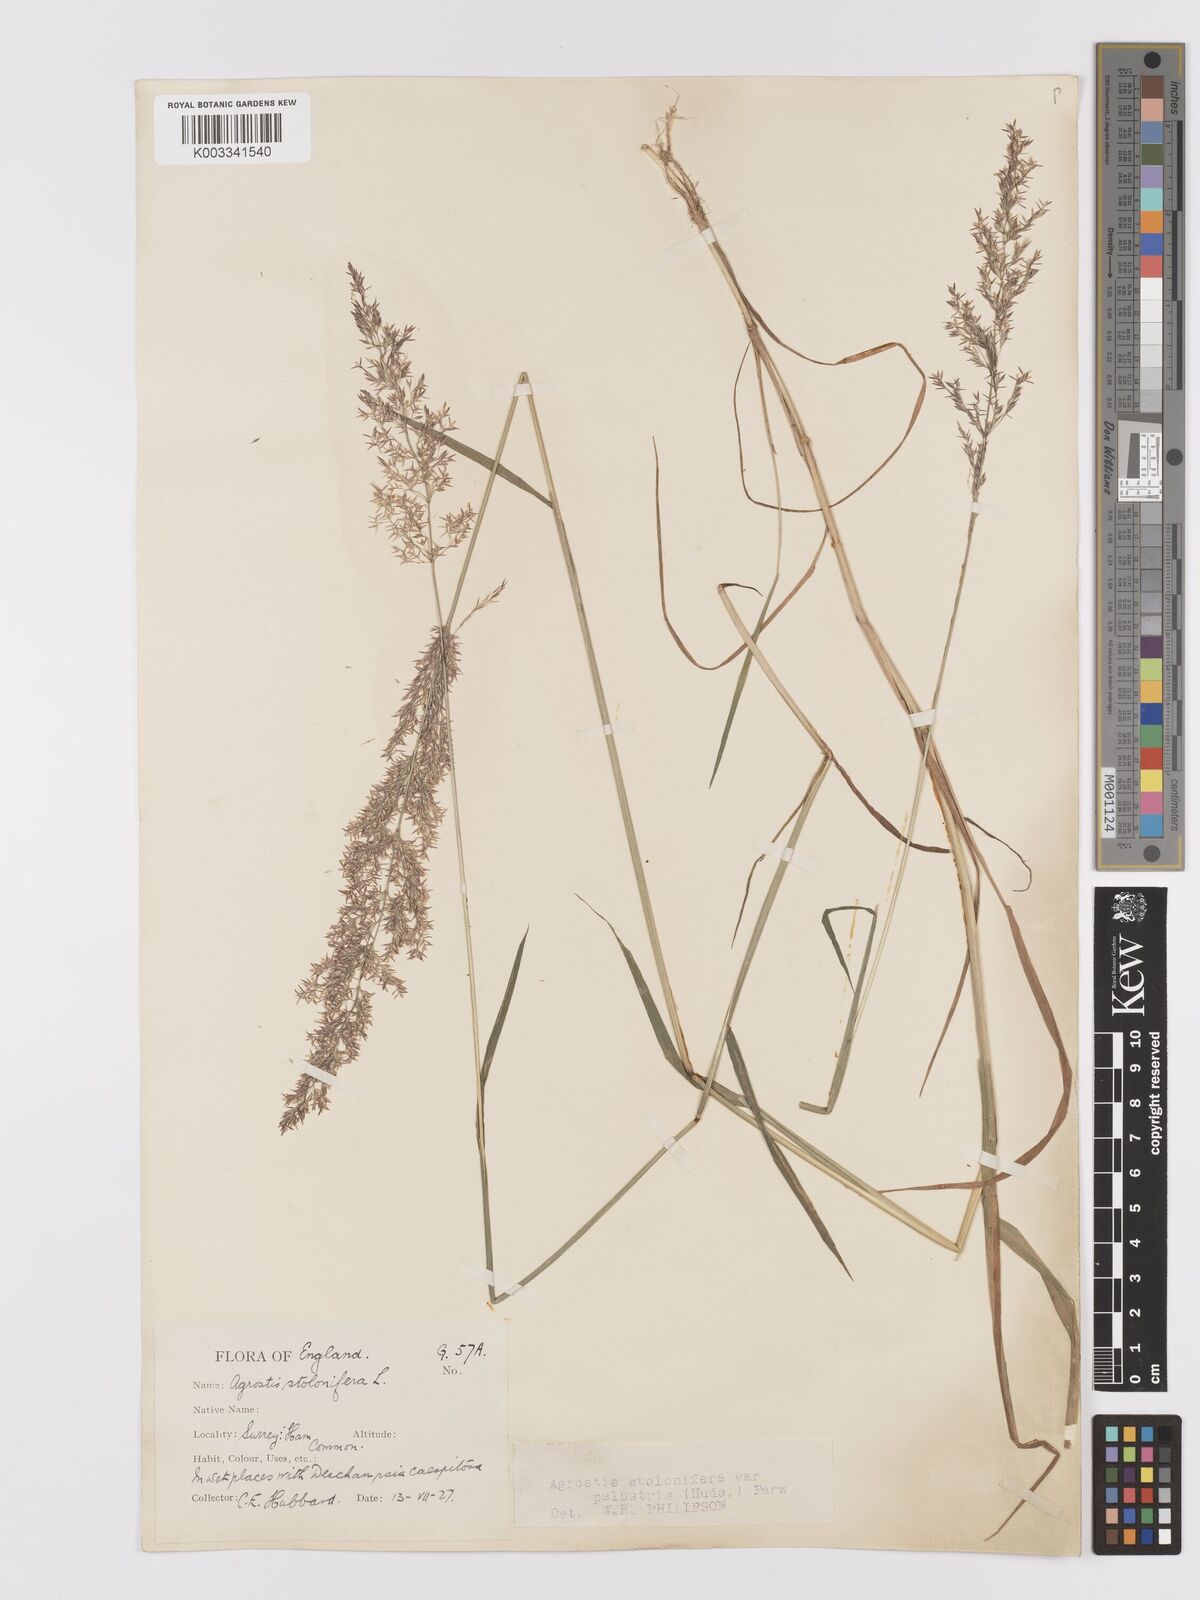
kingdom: Plantae
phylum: Tracheophyta
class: Liliopsida
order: Poales
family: Poaceae
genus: Agrostis
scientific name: Agrostis stolonifera
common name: Creeping bentgrass
